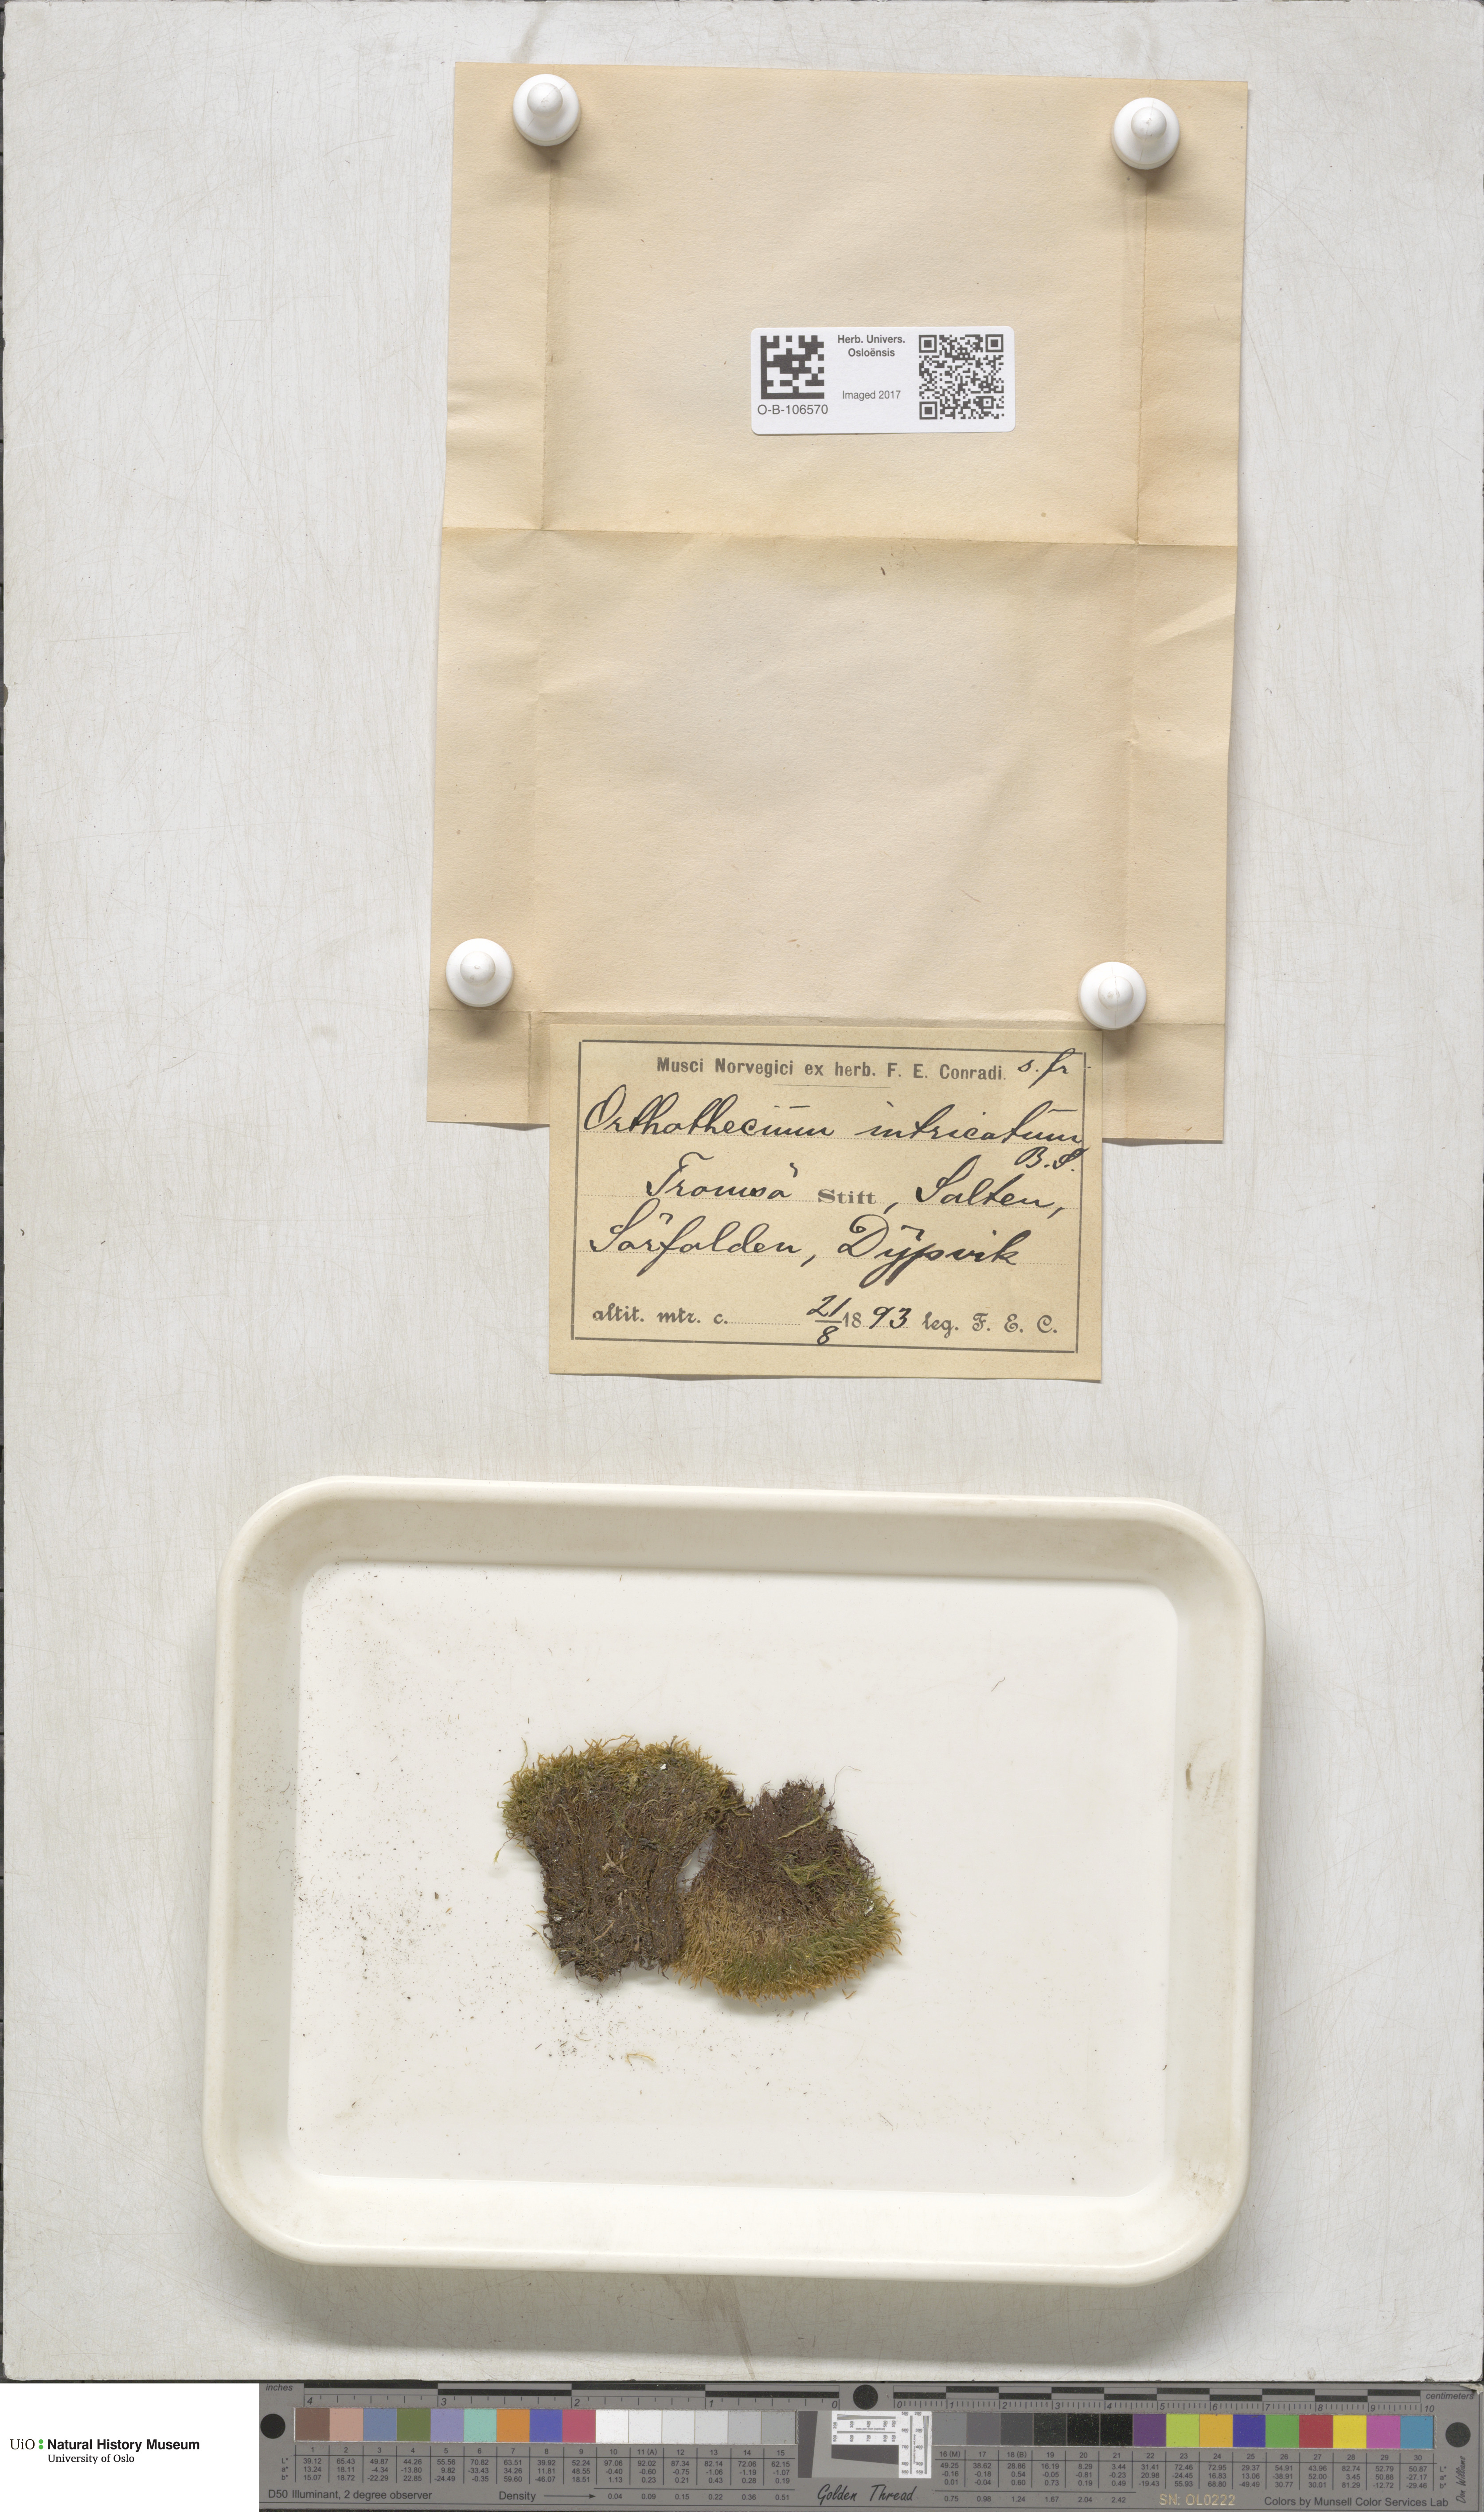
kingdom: Plantae
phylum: Bryophyta
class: Bryopsida
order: Hypnales
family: Plagiotheciaceae
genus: Orthothecium
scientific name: Orthothecium intricatum
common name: Fine-leaved erect-capsule moss
